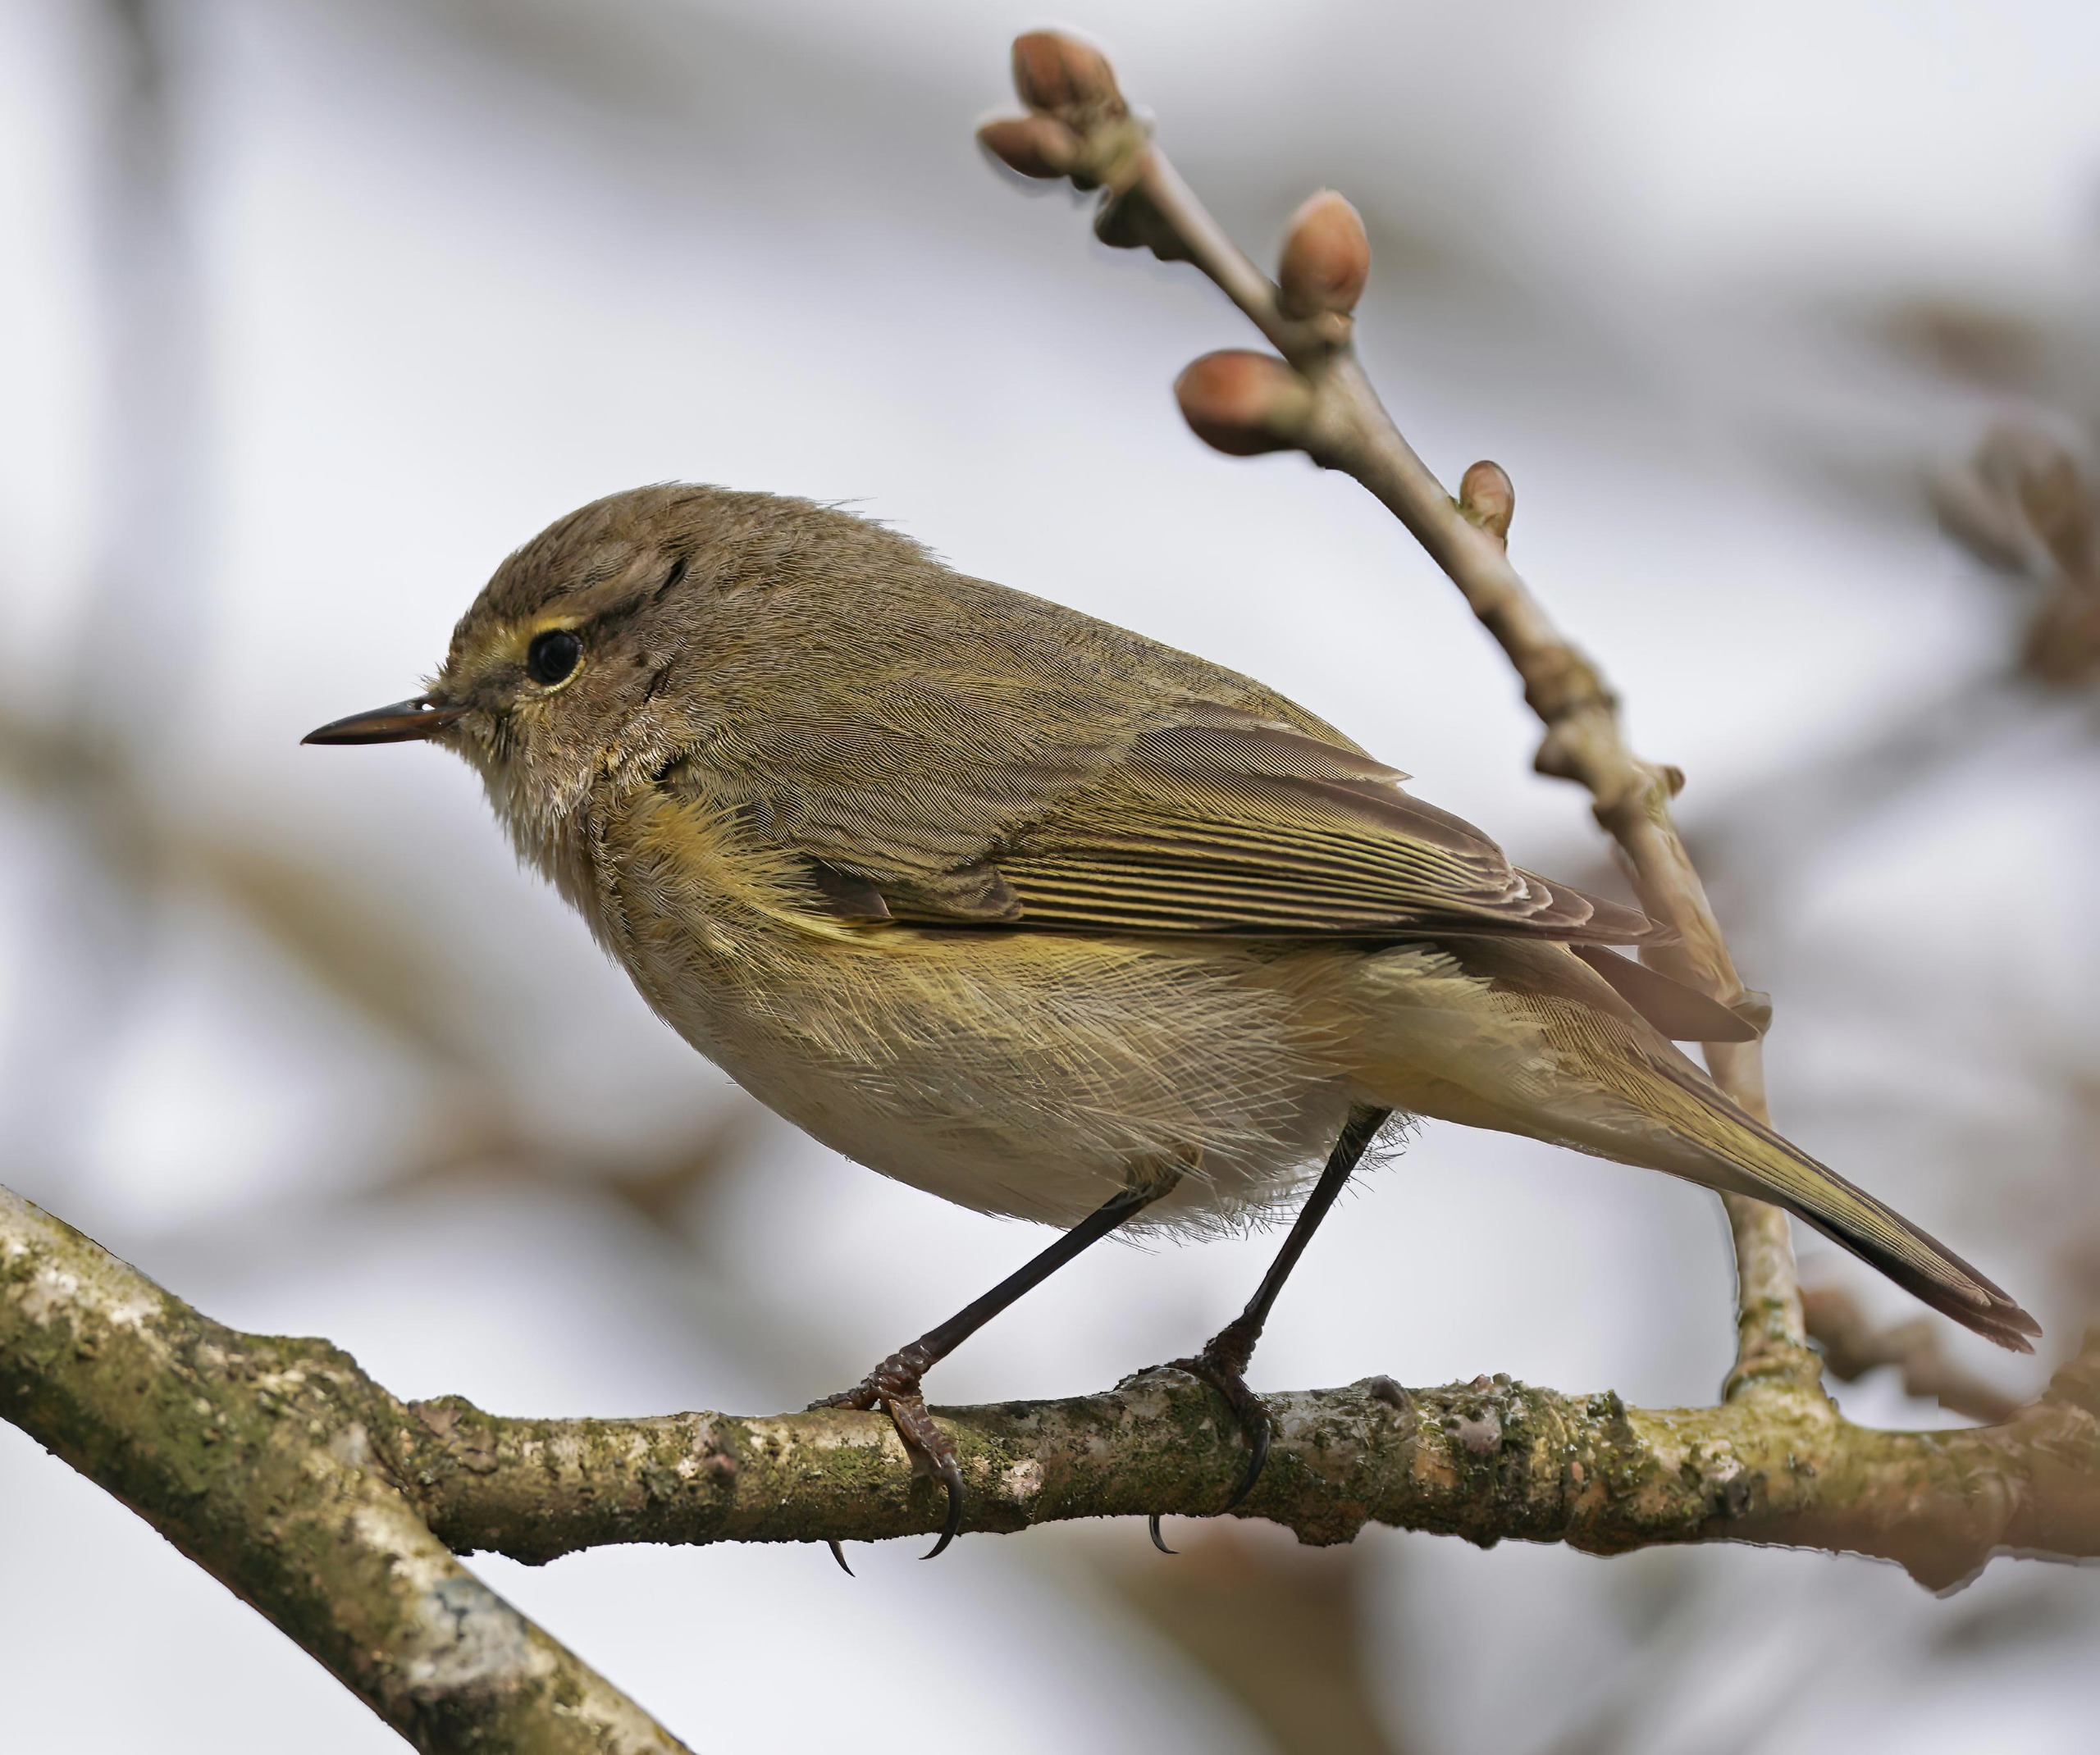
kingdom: Animalia
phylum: Chordata
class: Aves
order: Passeriformes
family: Phylloscopidae
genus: Phylloscopus
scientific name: Phylloscopus collybita
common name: Gransanger
